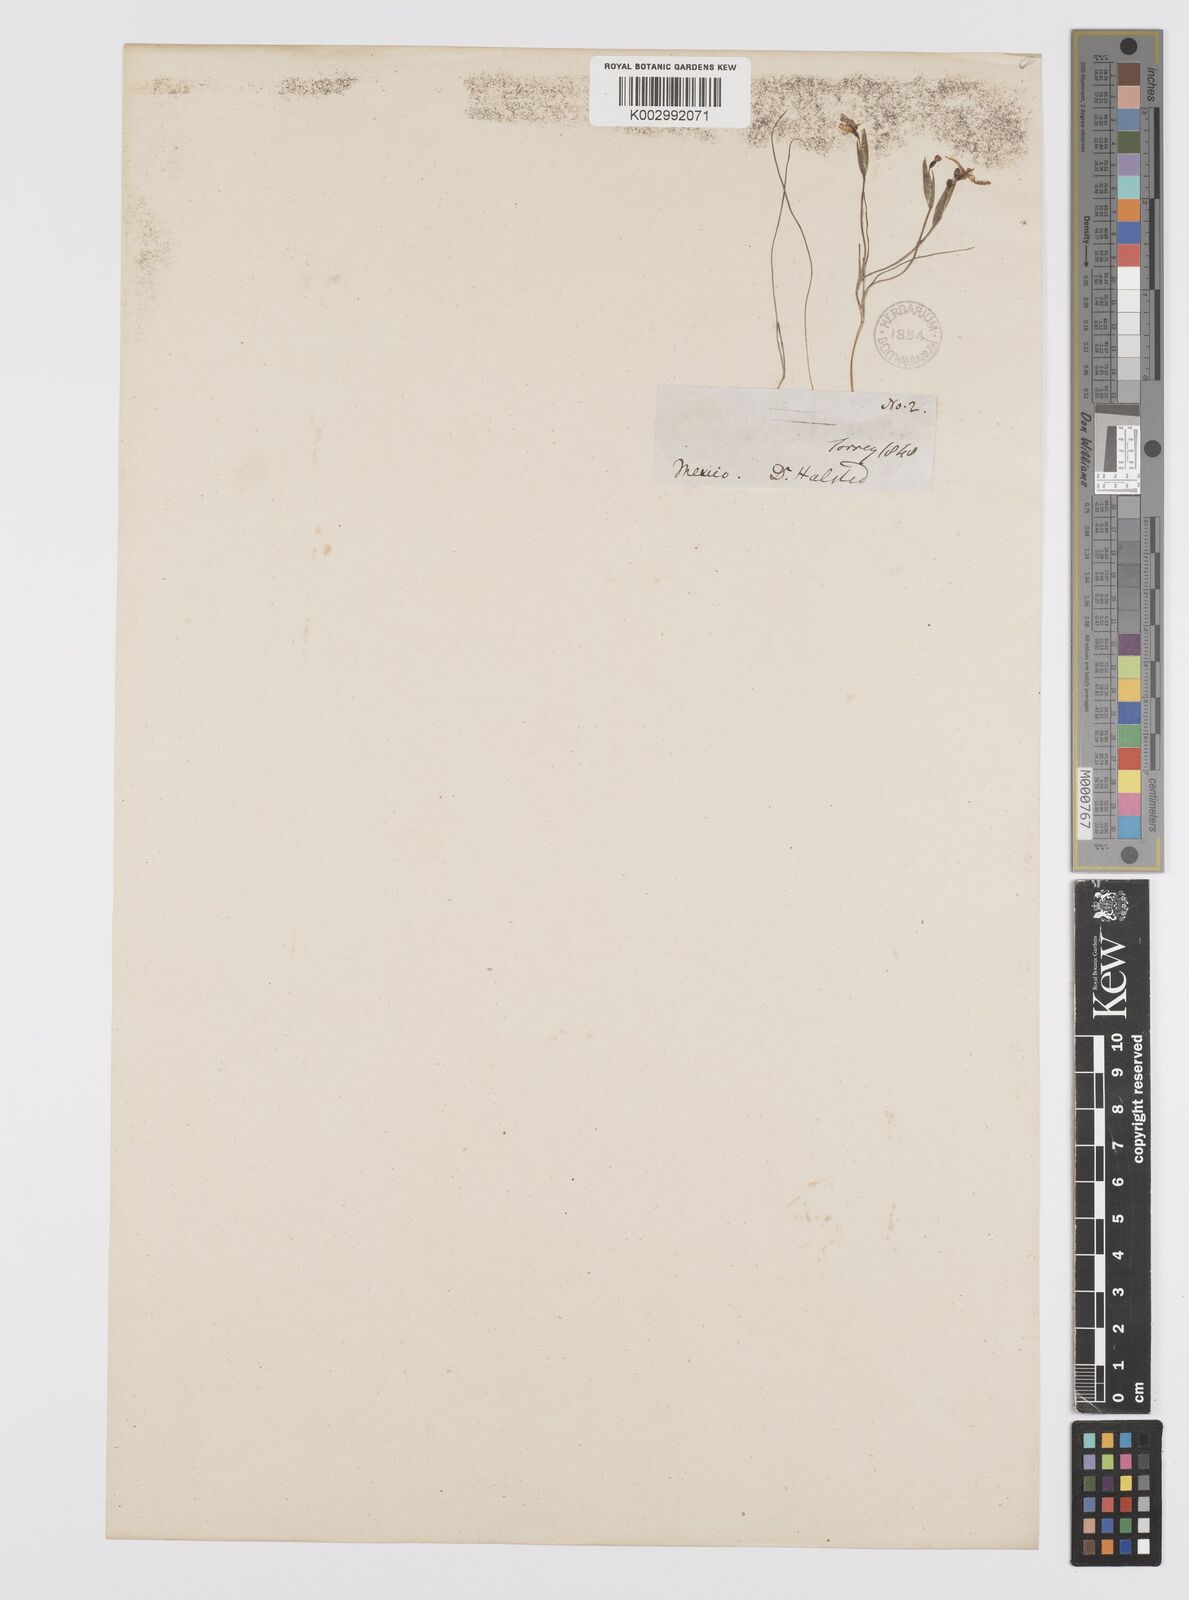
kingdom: Plantae
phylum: Tracheophyta
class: Liliopsida
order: Asparagales
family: Iridaceae
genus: Sisyrinchium
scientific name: Sisyrinchium bermudiana
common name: Blue-eyed-grass
